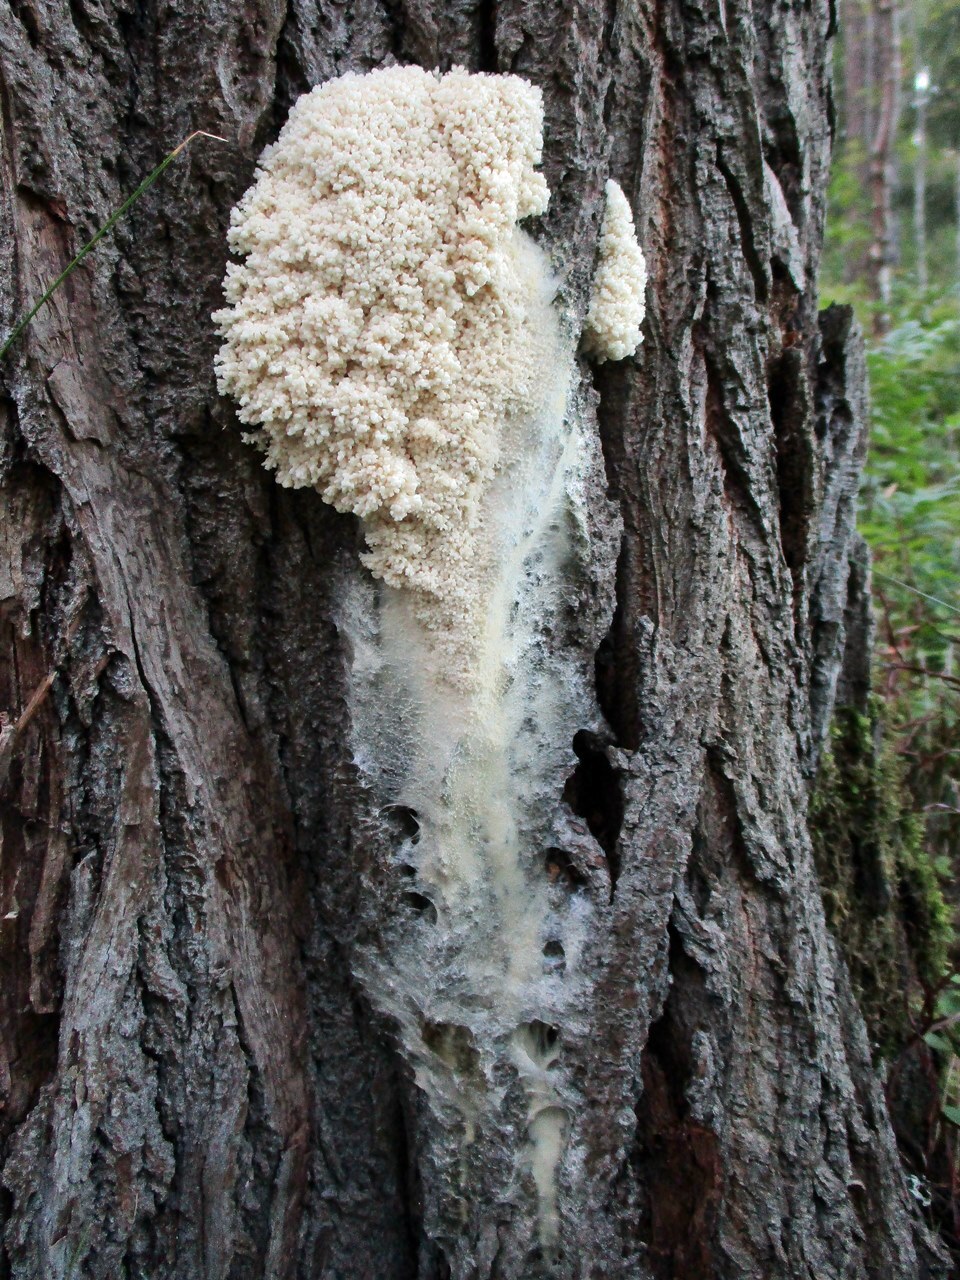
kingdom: Protozoa
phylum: Mycetozoa
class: Myxomycetes
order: Stemonitidales
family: Stemonitidaceae
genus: Brefeldia
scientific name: Brefeldia maxima
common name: Tapioca slime mold
